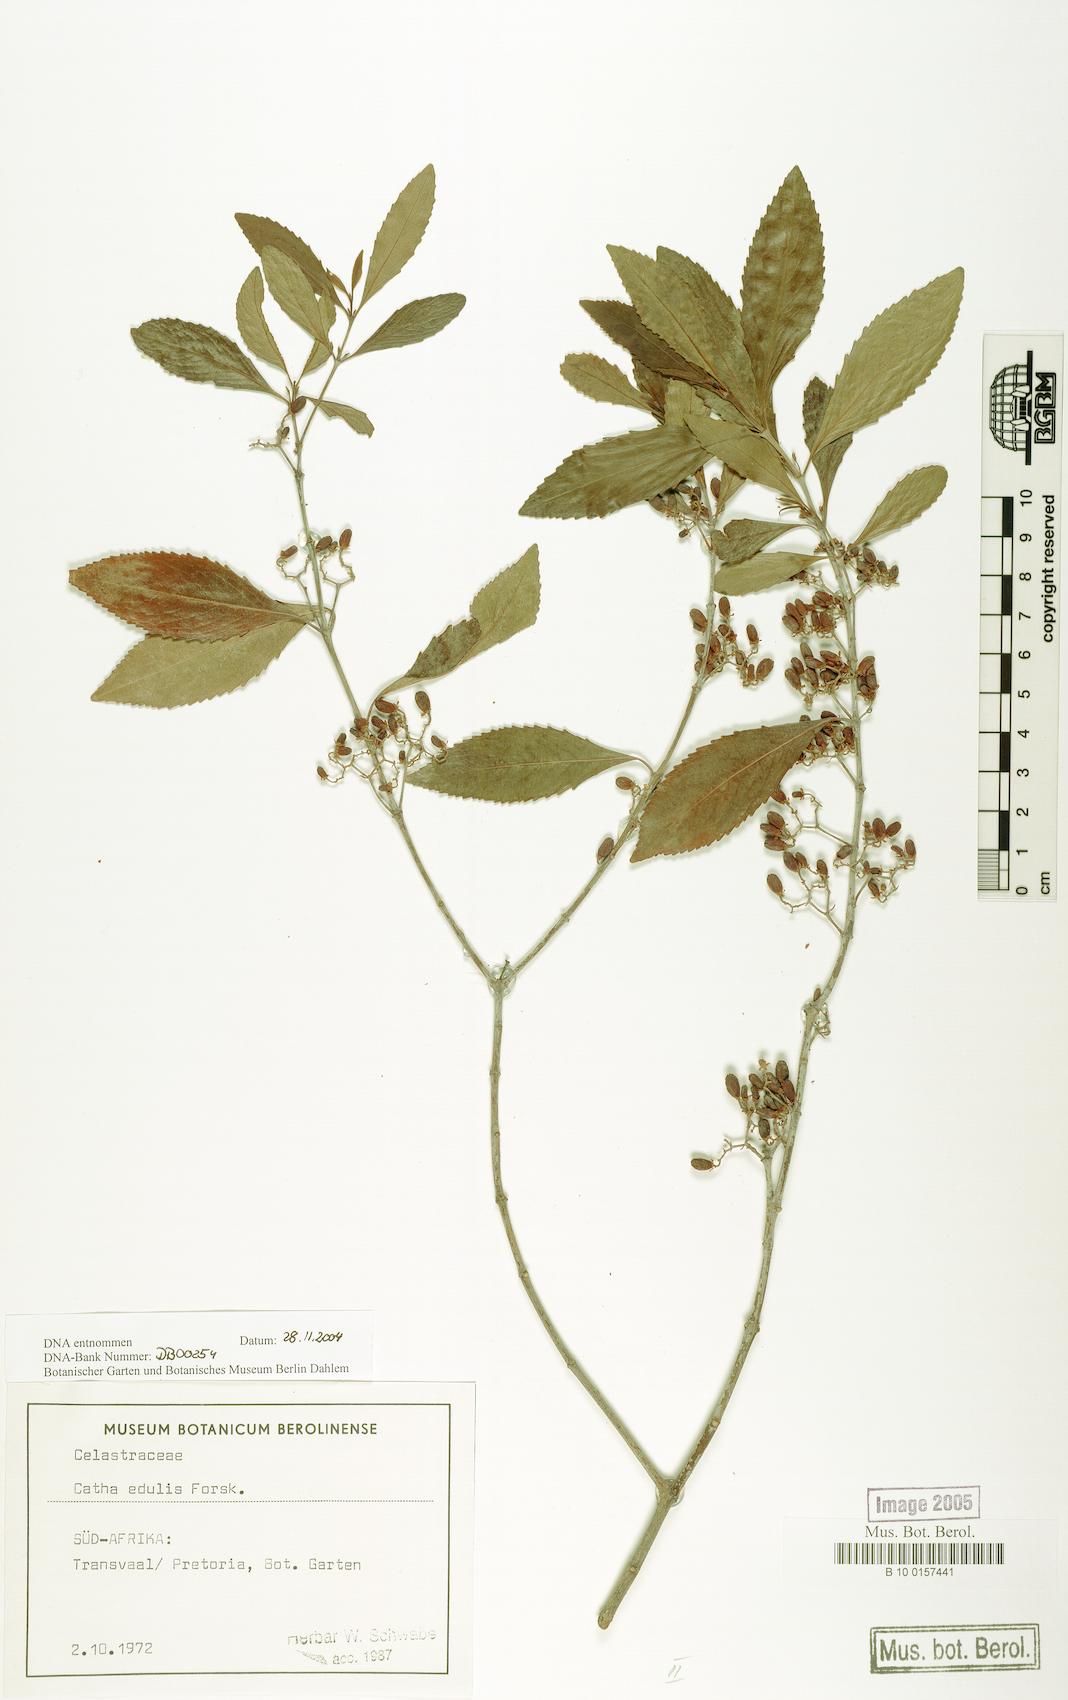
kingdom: Plantae
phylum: Tracheophyta
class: Magnoliopsida
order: Celastrales
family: Celastraceae
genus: Catha
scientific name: Catha edulis
